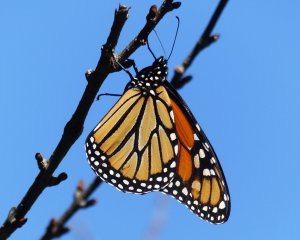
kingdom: Animalia
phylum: Arthropoda
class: Insecta
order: Lepidoptera
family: Nymphalidae
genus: Danaus
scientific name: Danaus plexippus
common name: Monarch
